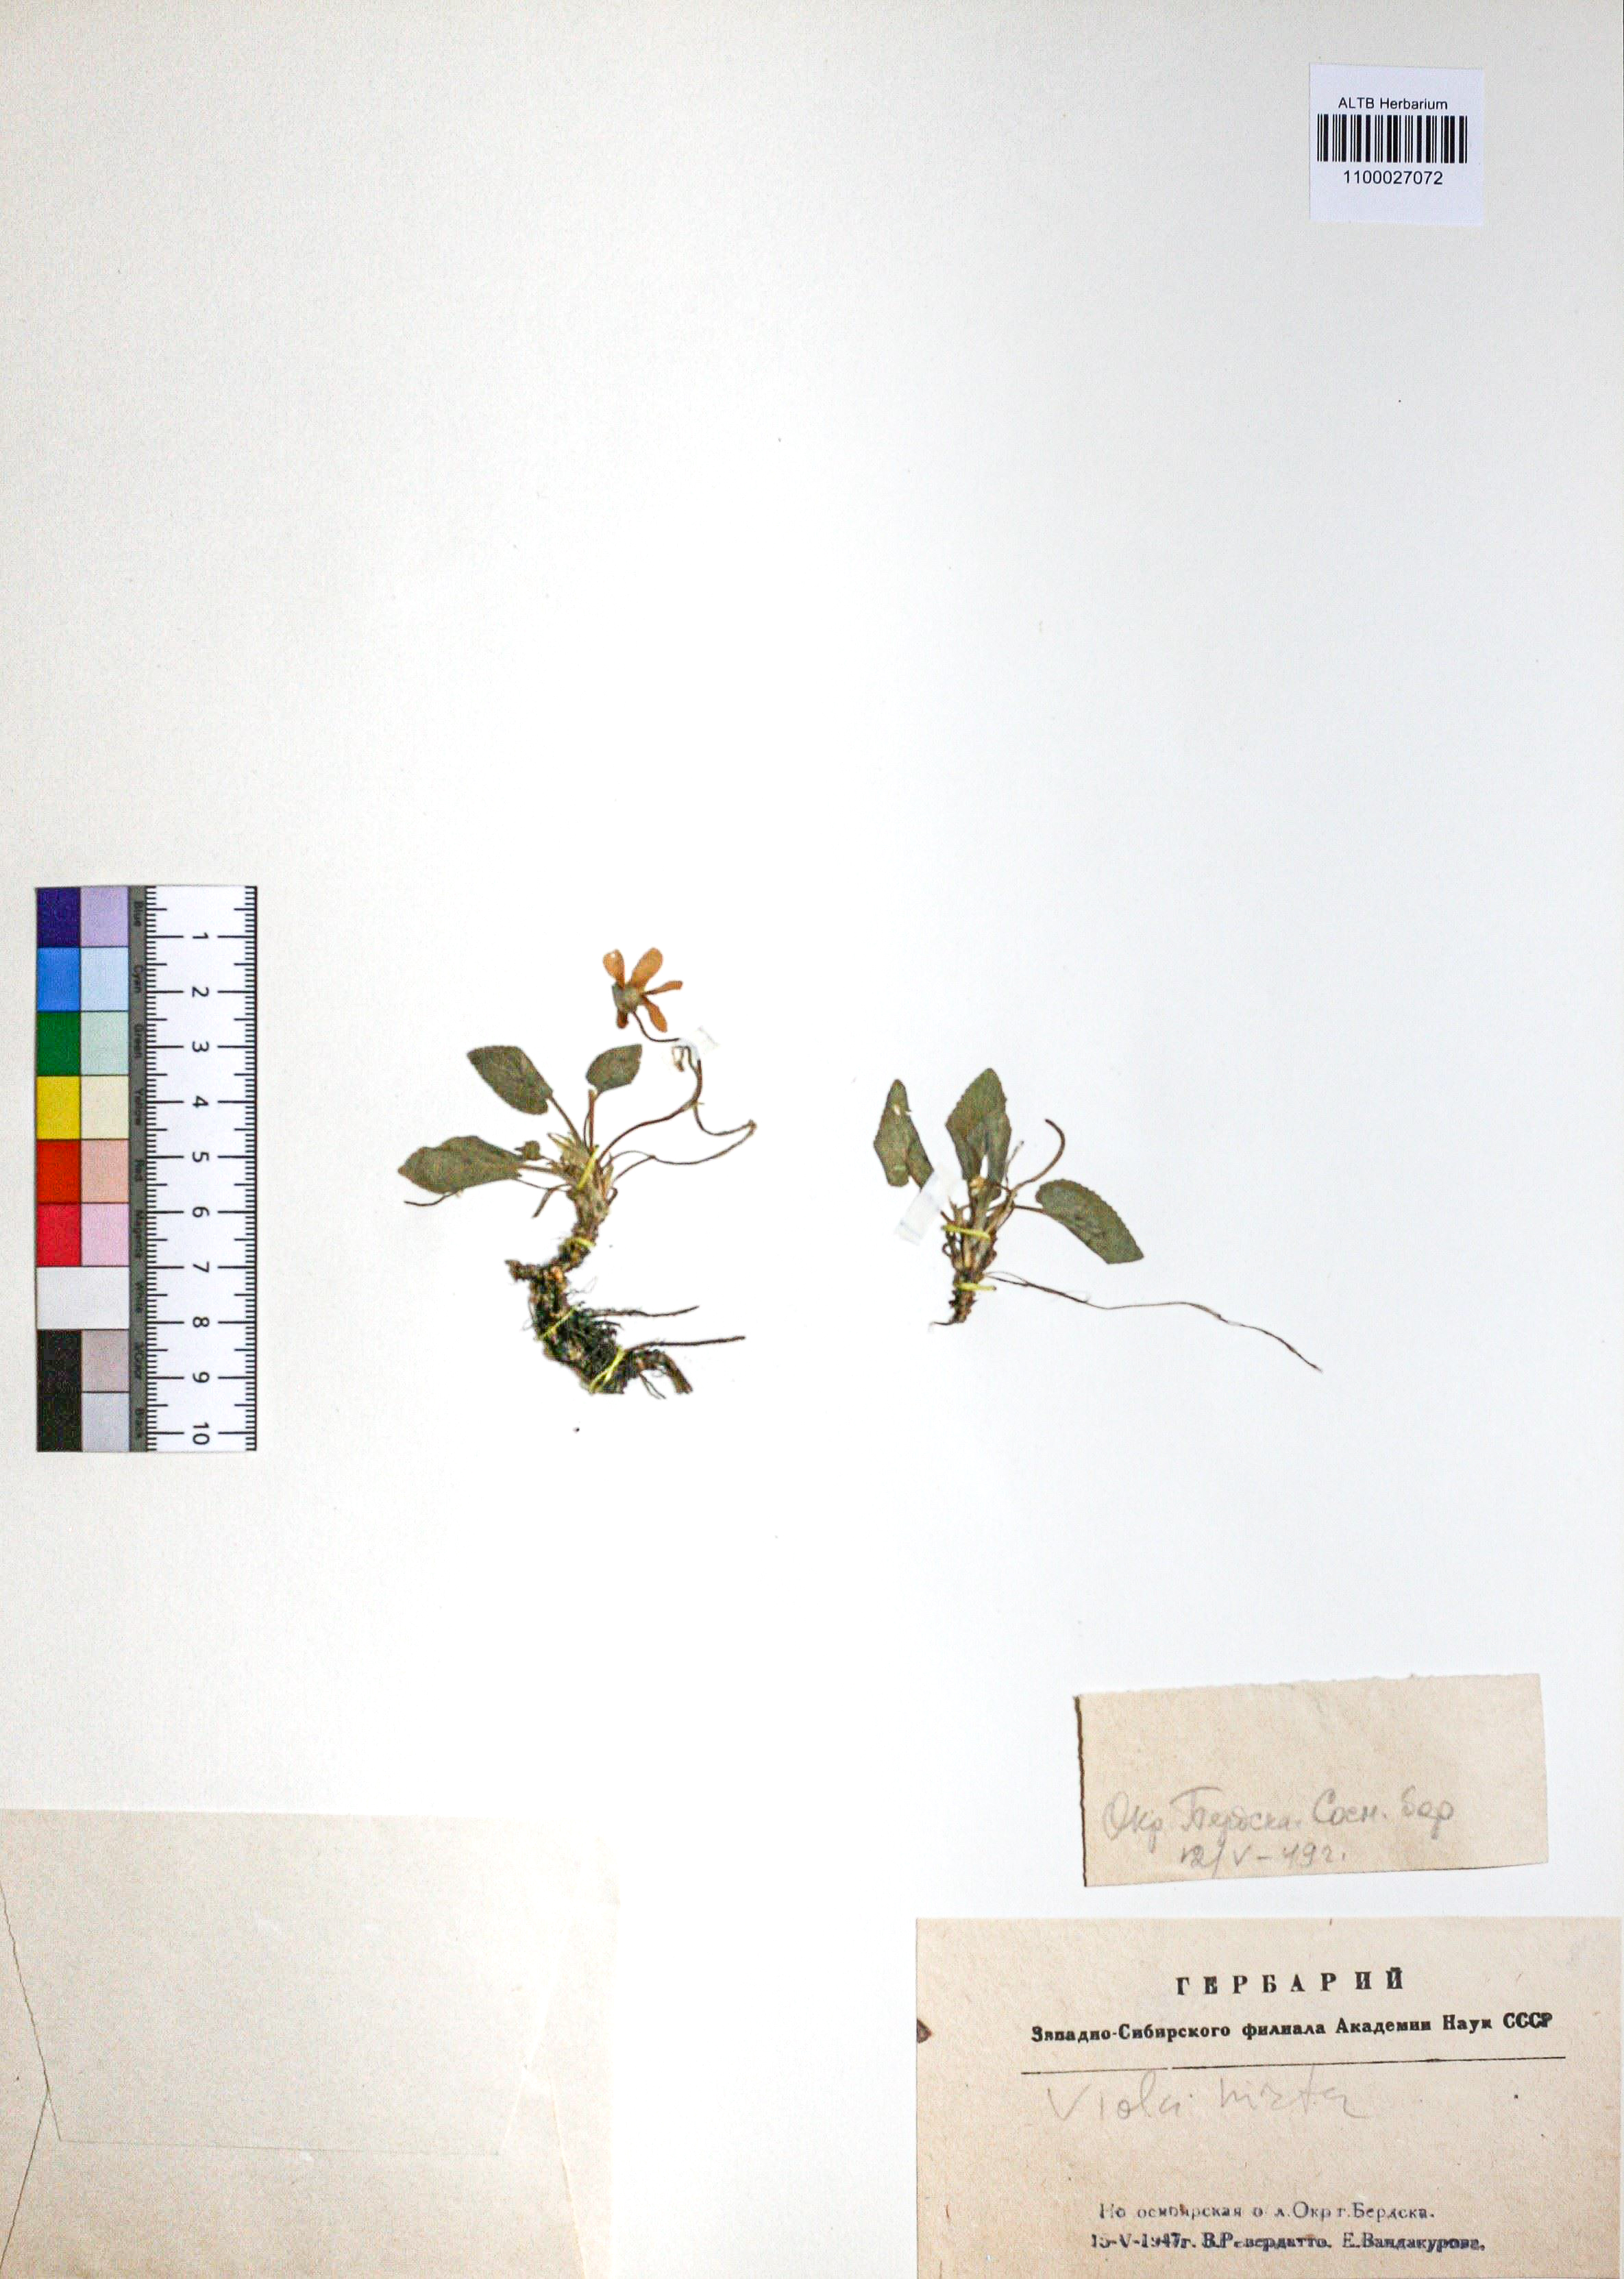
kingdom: Plantae
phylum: Tracheophyta
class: Magnoliopsida
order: Malpighiales
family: Violaceae
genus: Viola
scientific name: Viola hirta
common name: Hairy violet
